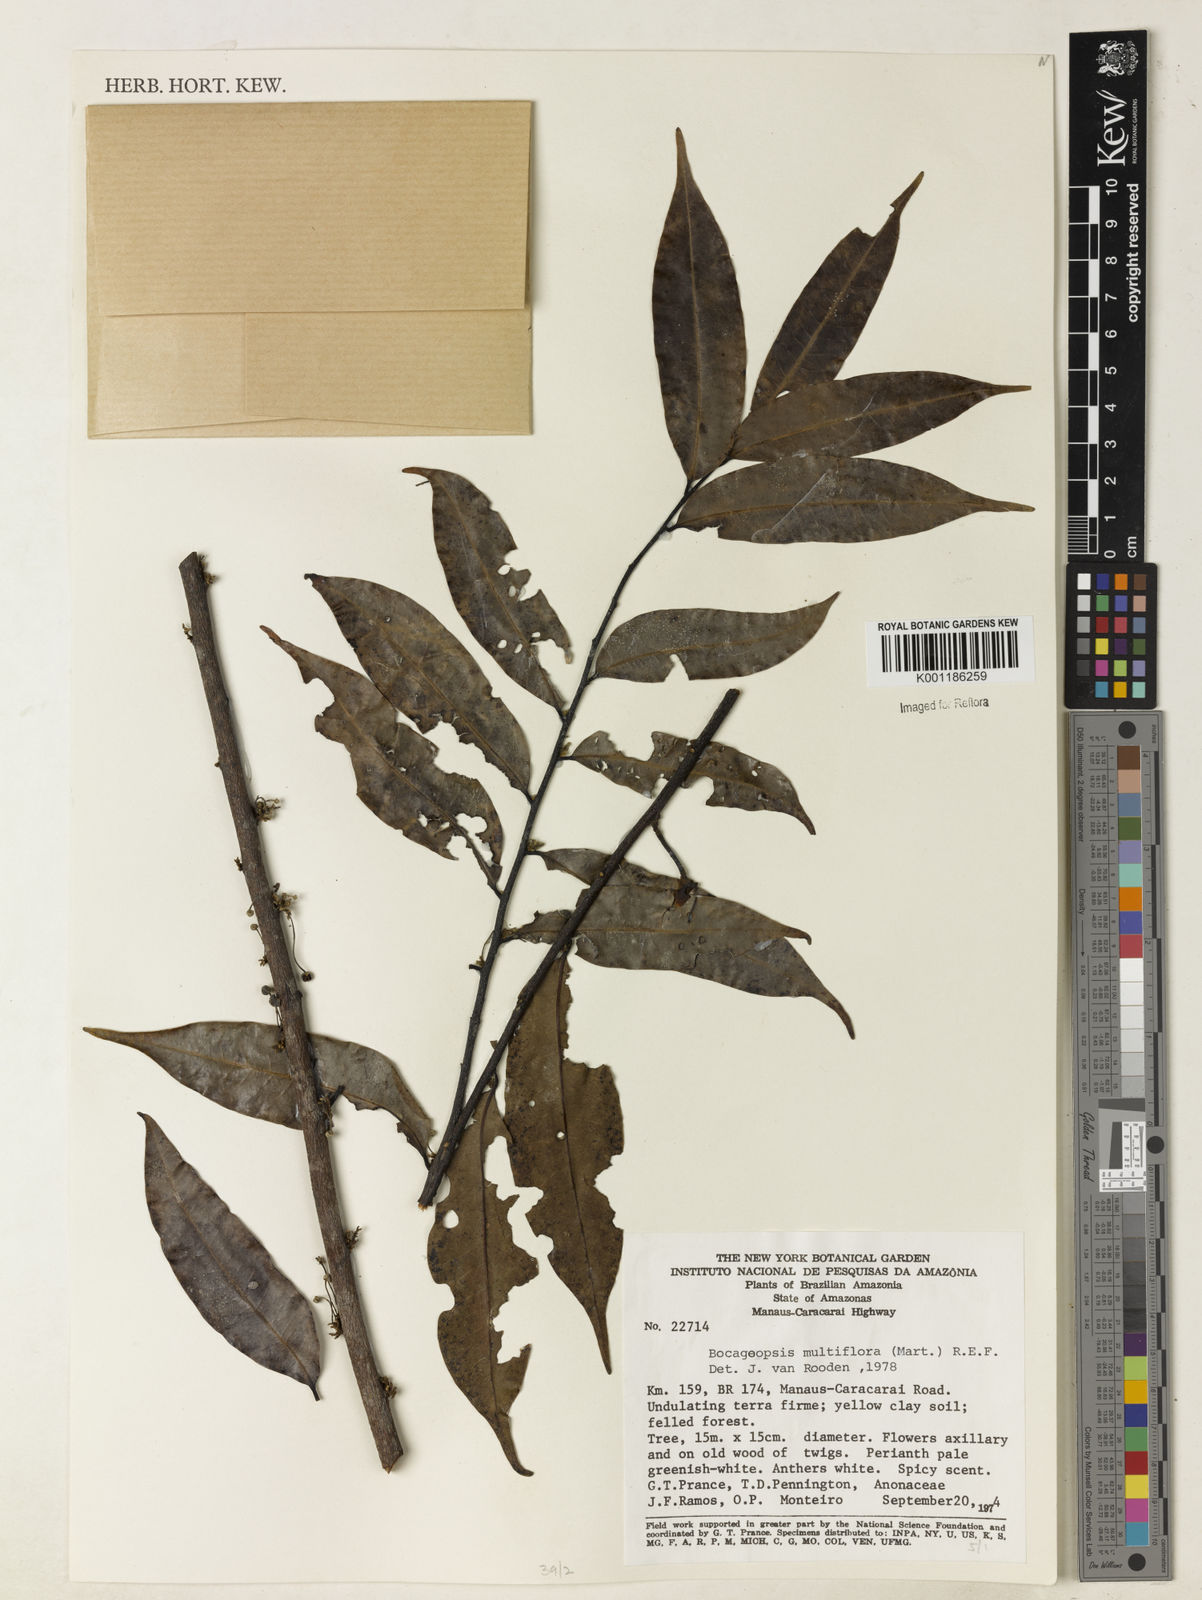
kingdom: Plantae
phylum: Tracheophyta
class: Magnoliopsida
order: Magnoliales
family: Annonaceae
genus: Bocageopsis
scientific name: Bocageopsis multiflora
